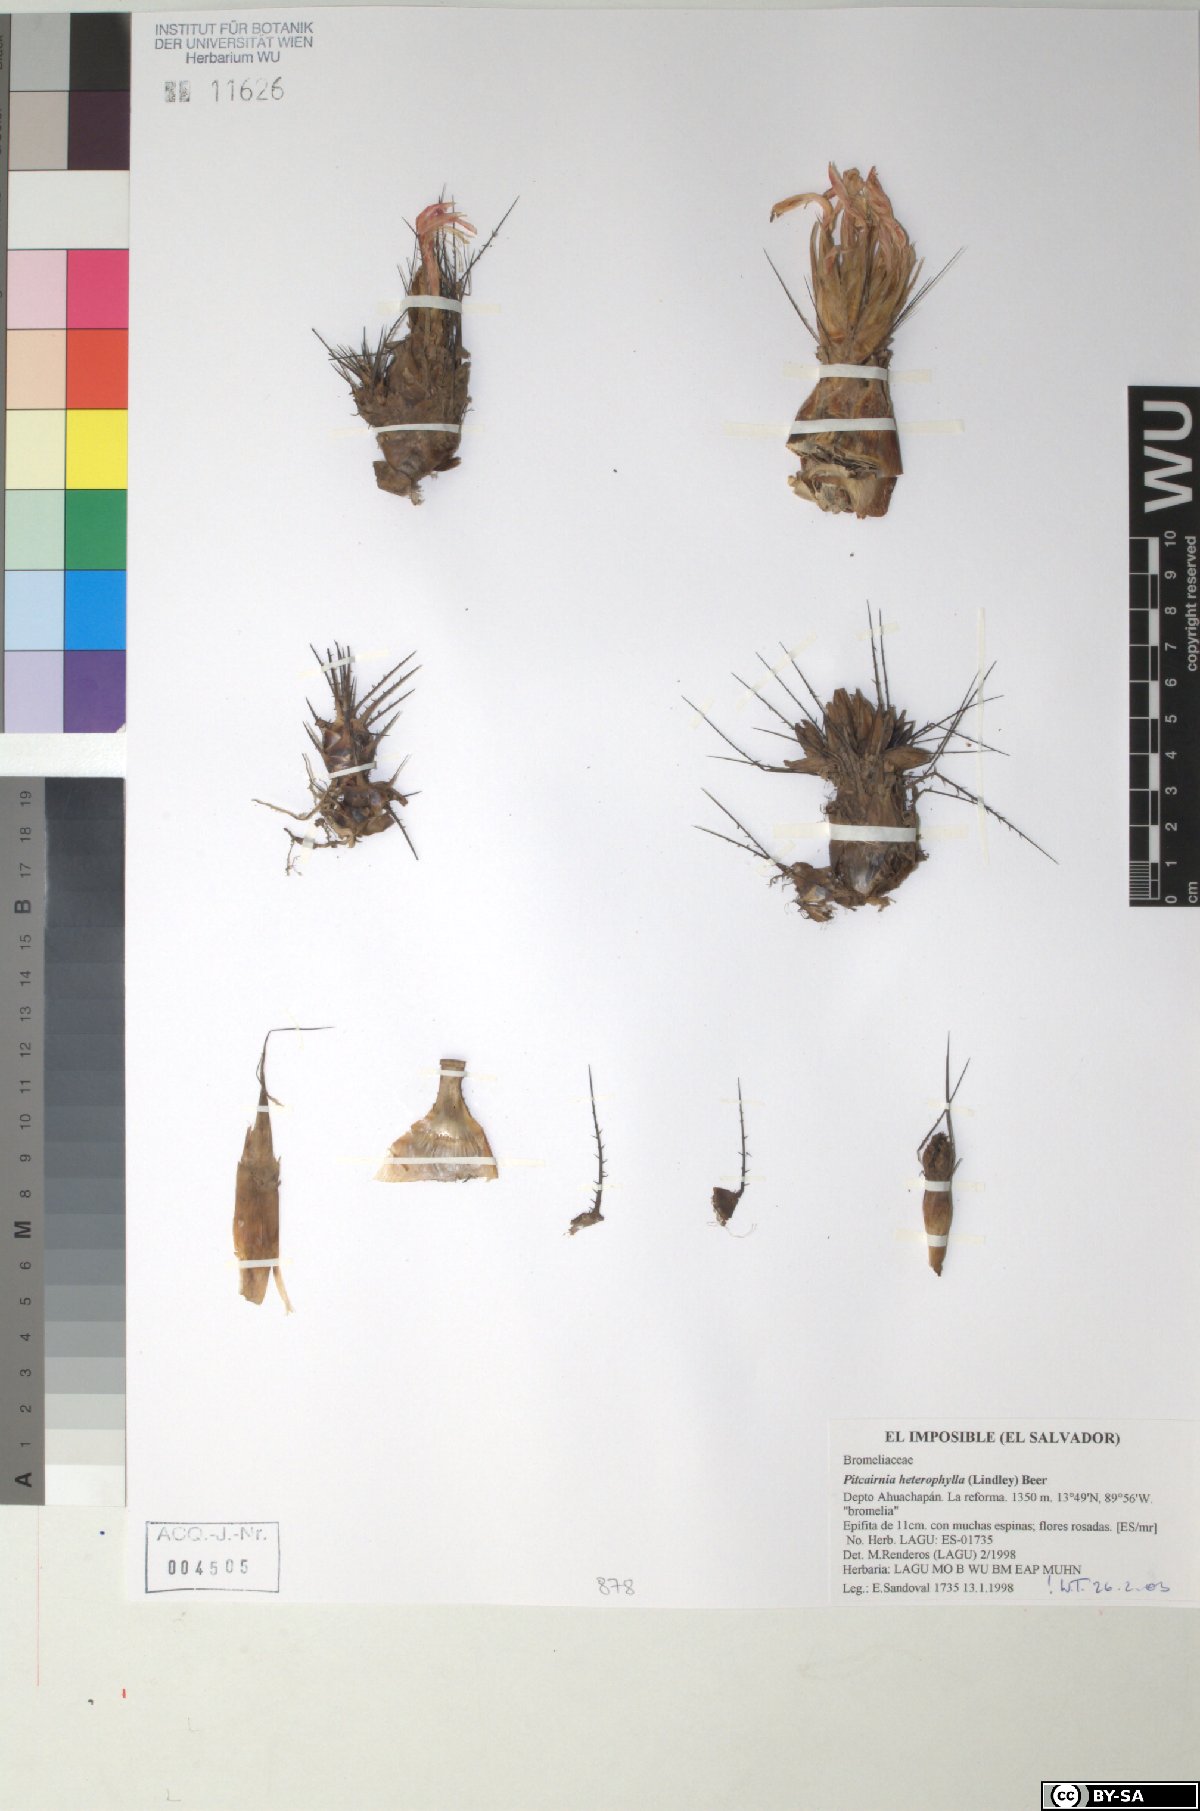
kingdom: Plantae
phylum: Tracheophyta
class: Liliopsida
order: Poales
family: Bromeliaceae
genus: Pitcairnia
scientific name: Pitcairnia heterophylla
